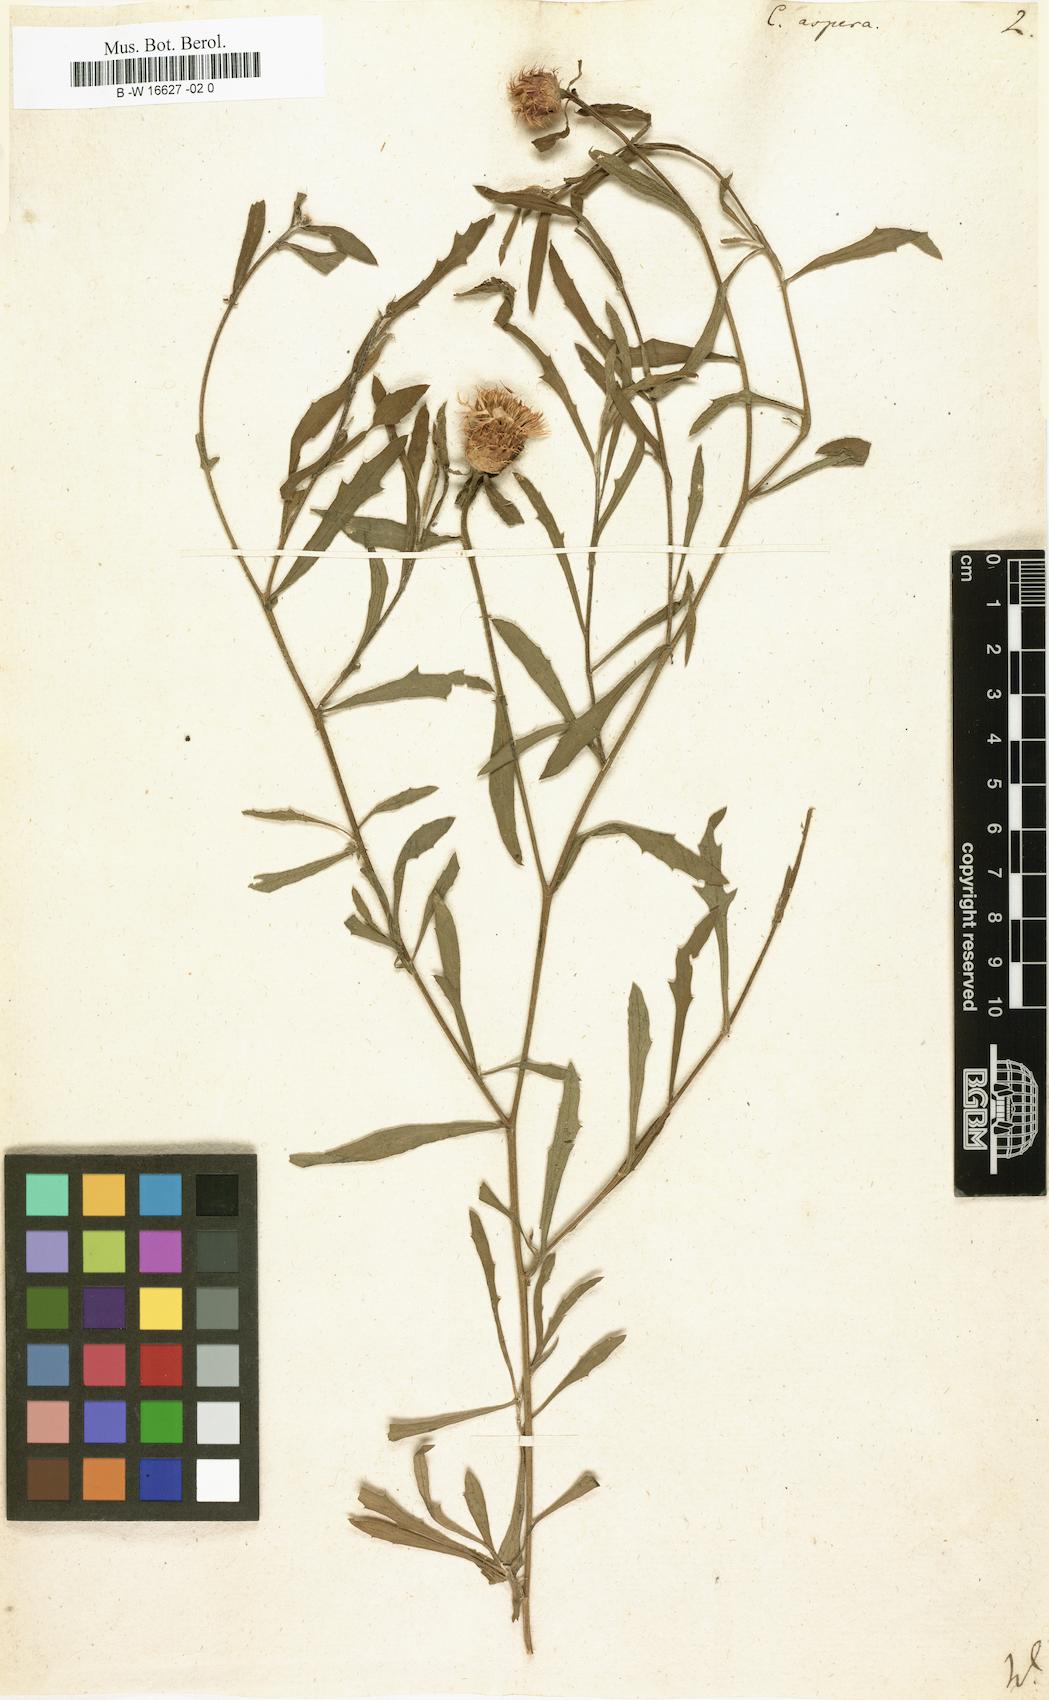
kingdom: Plantae
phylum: Tracheophyta
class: Magnoliopsida
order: Asterales
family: Asteraceae
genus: Centaurea
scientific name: Centaurea aspera
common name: Rough star-thistle
